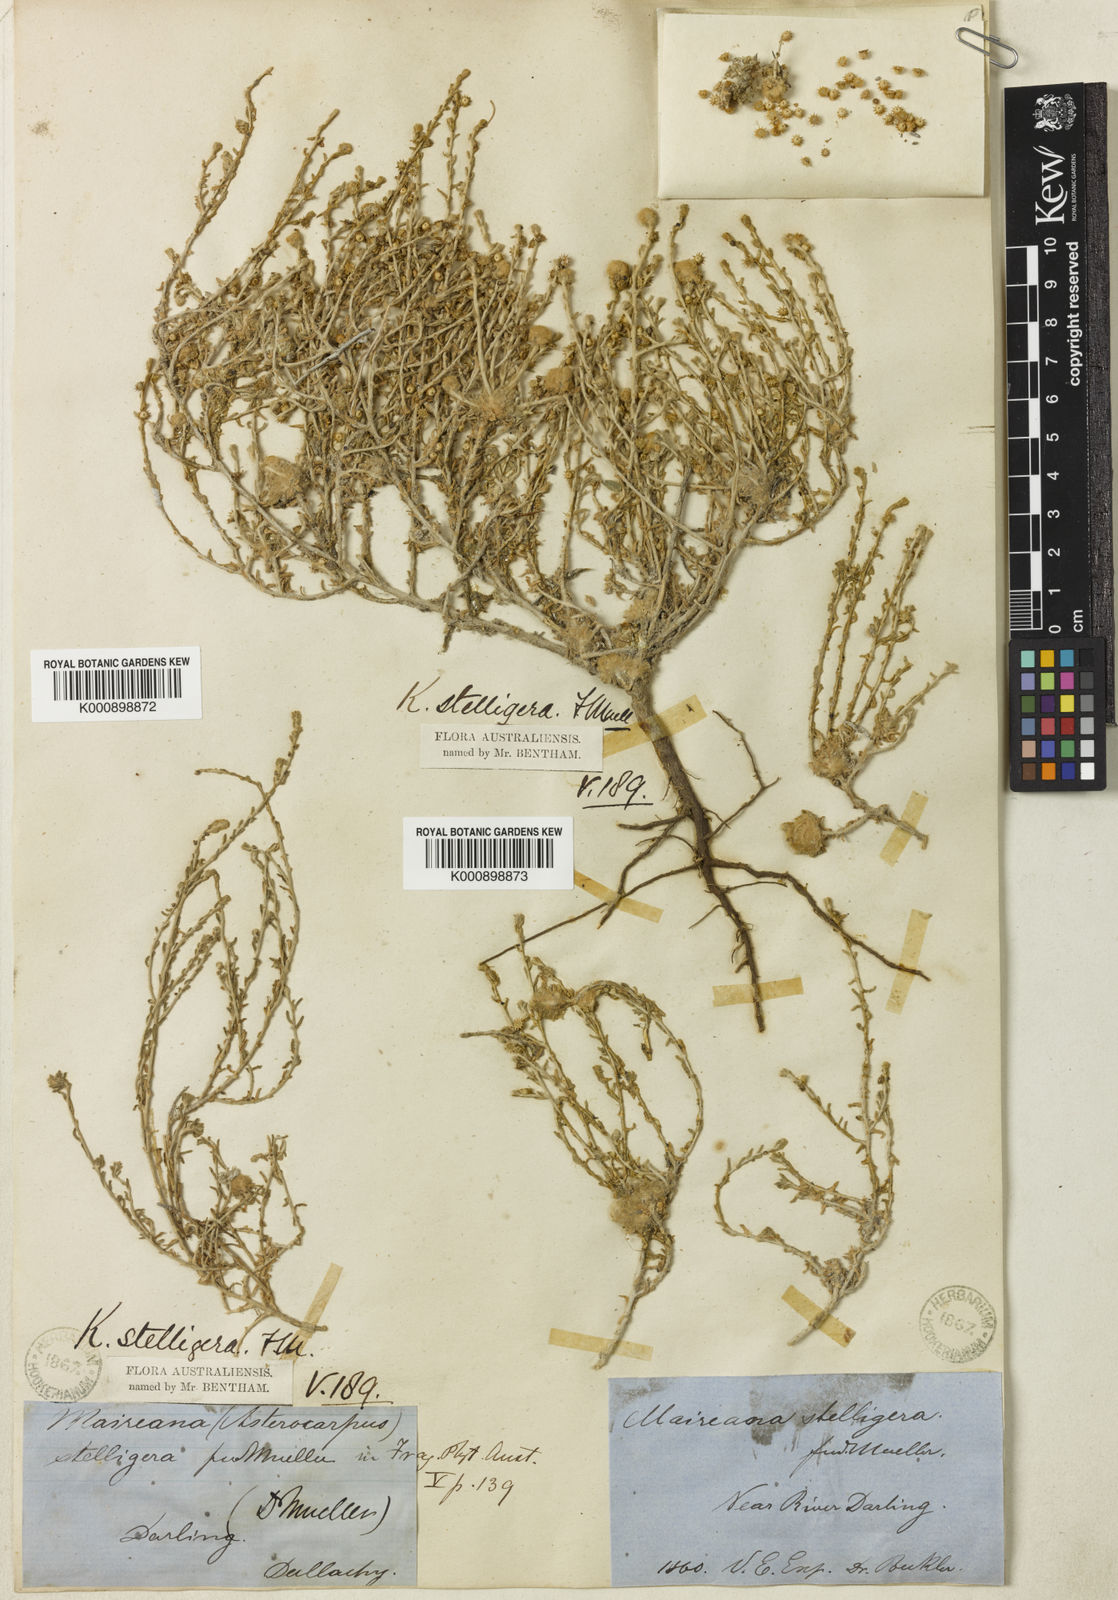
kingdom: Plantae
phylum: Tracheophyta
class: Magnoliopsida
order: Caryophyllales
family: Amaranthaceae
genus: Sclerolaena
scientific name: Sclerolaena stelligera
